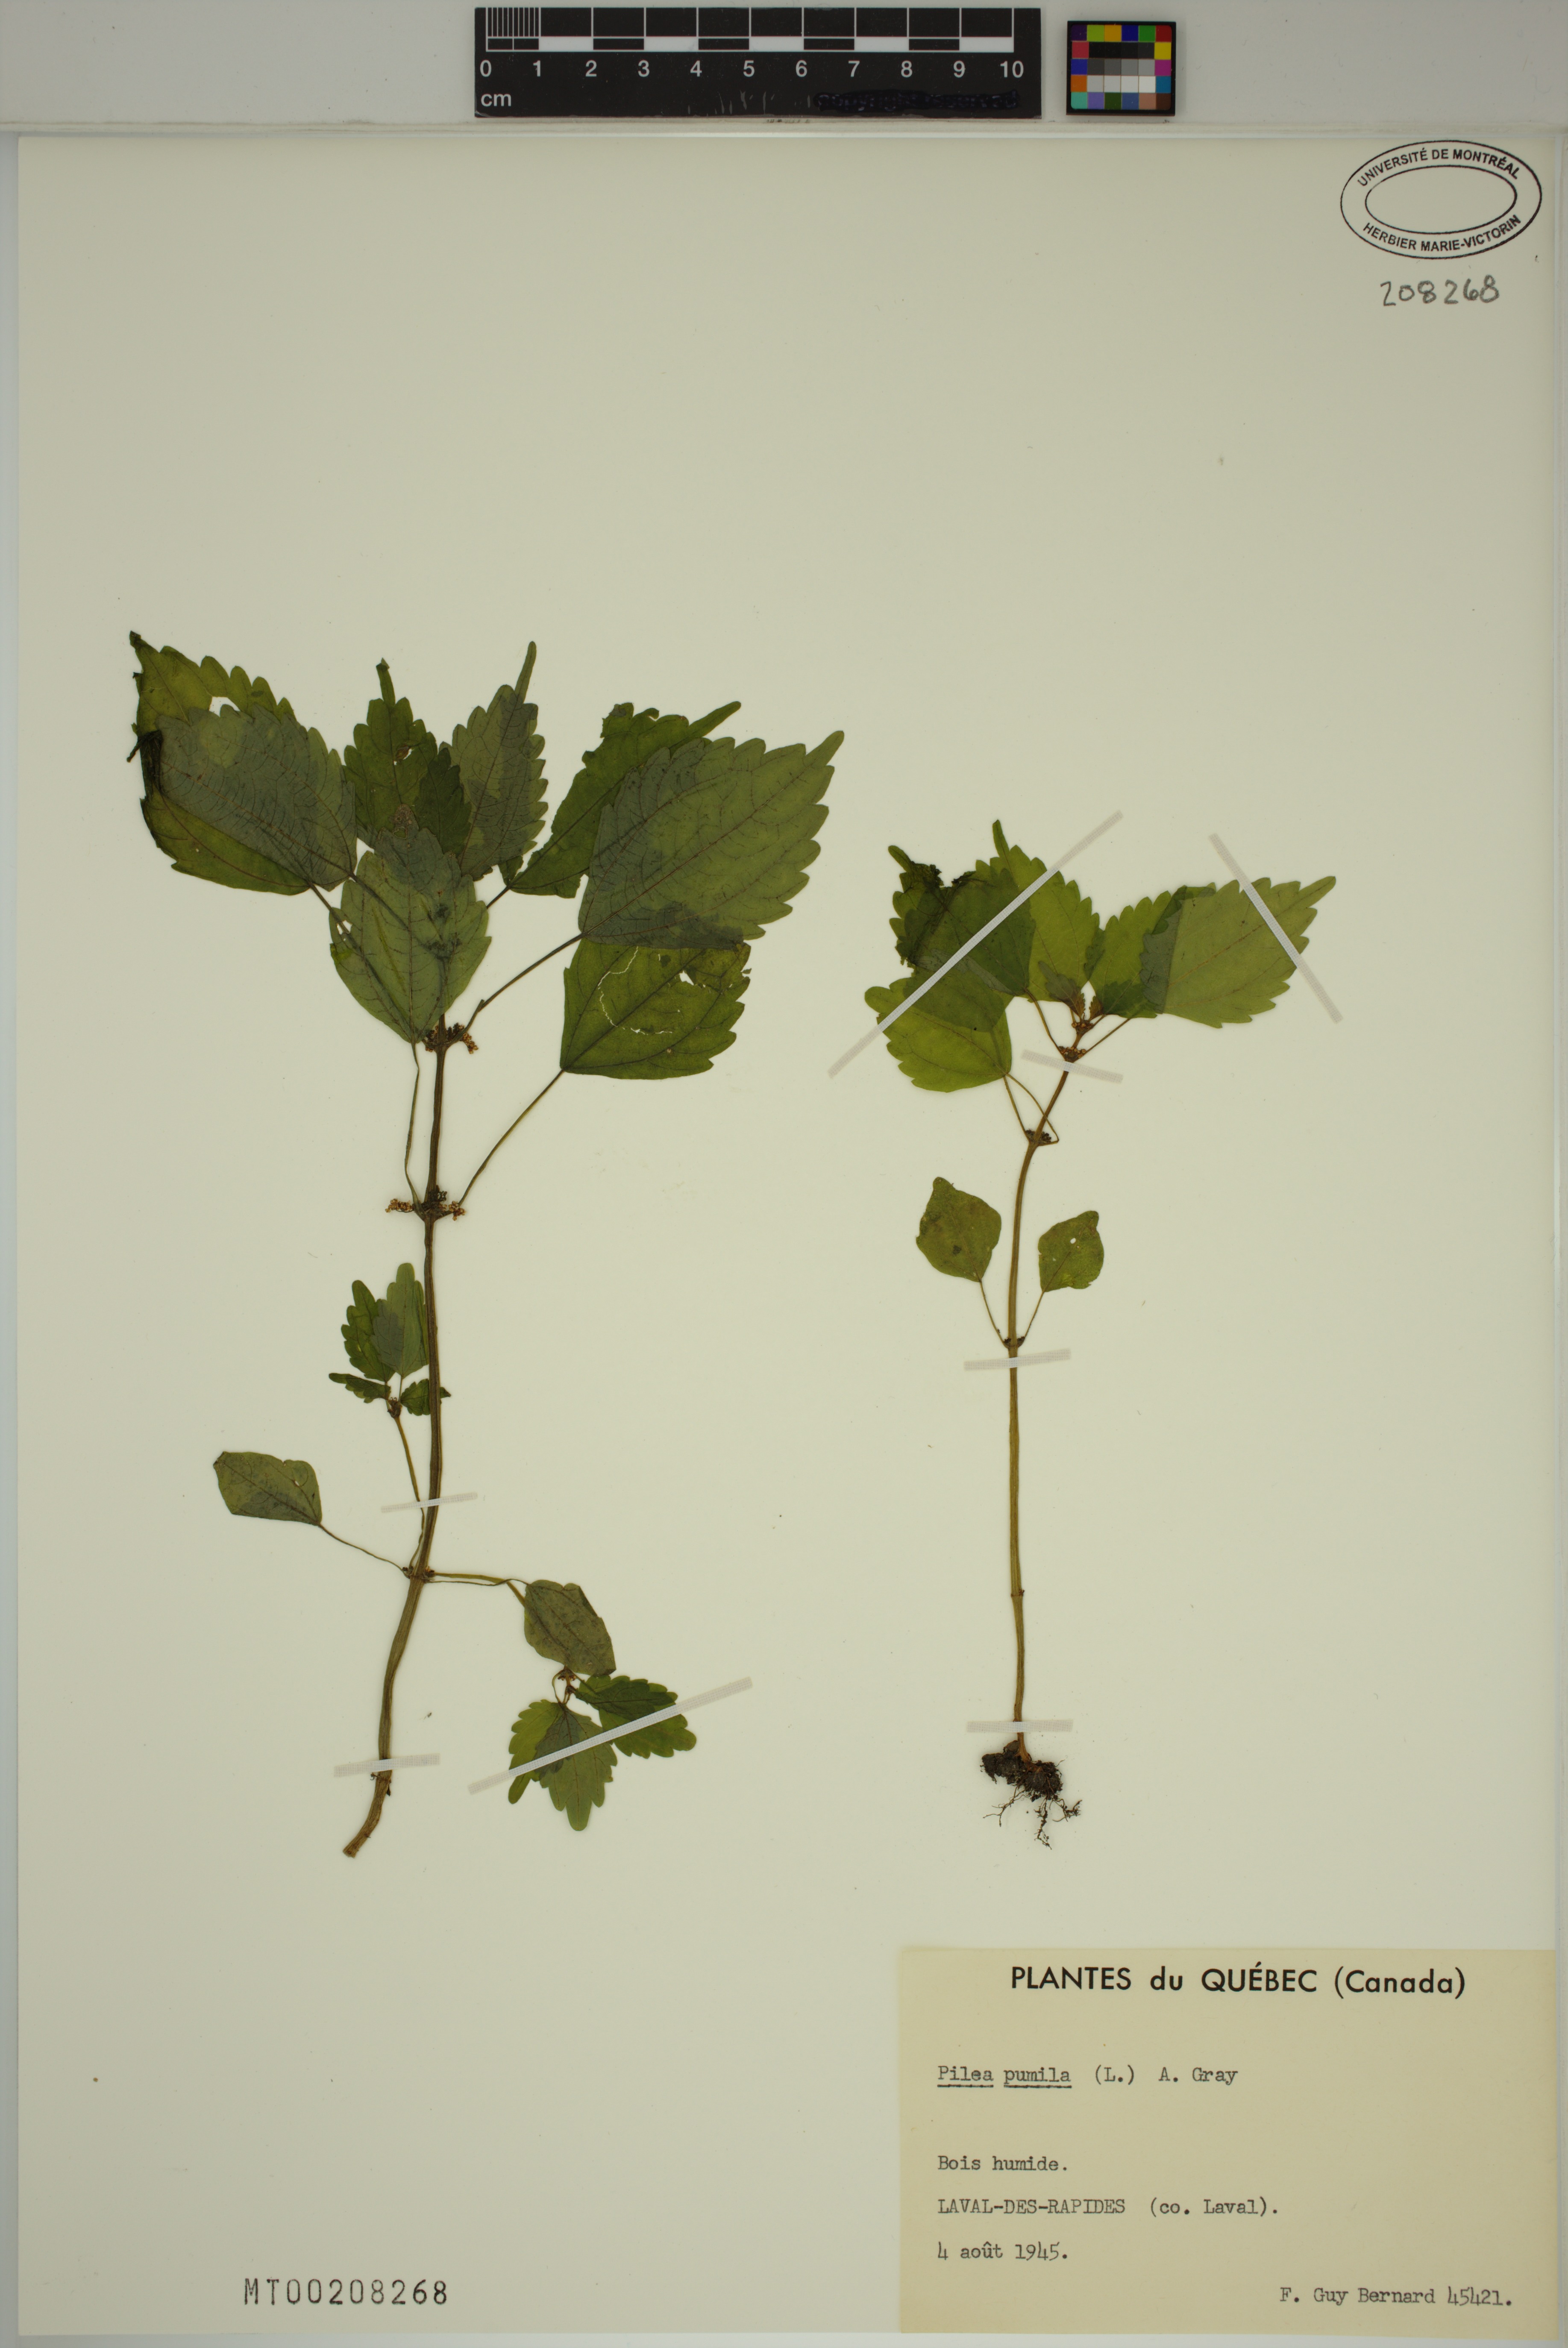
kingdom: Plantae
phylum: Tracheophyta
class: Magnoliopsida
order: Rosales
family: Urticaceae
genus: Pilea
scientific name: Pilea
